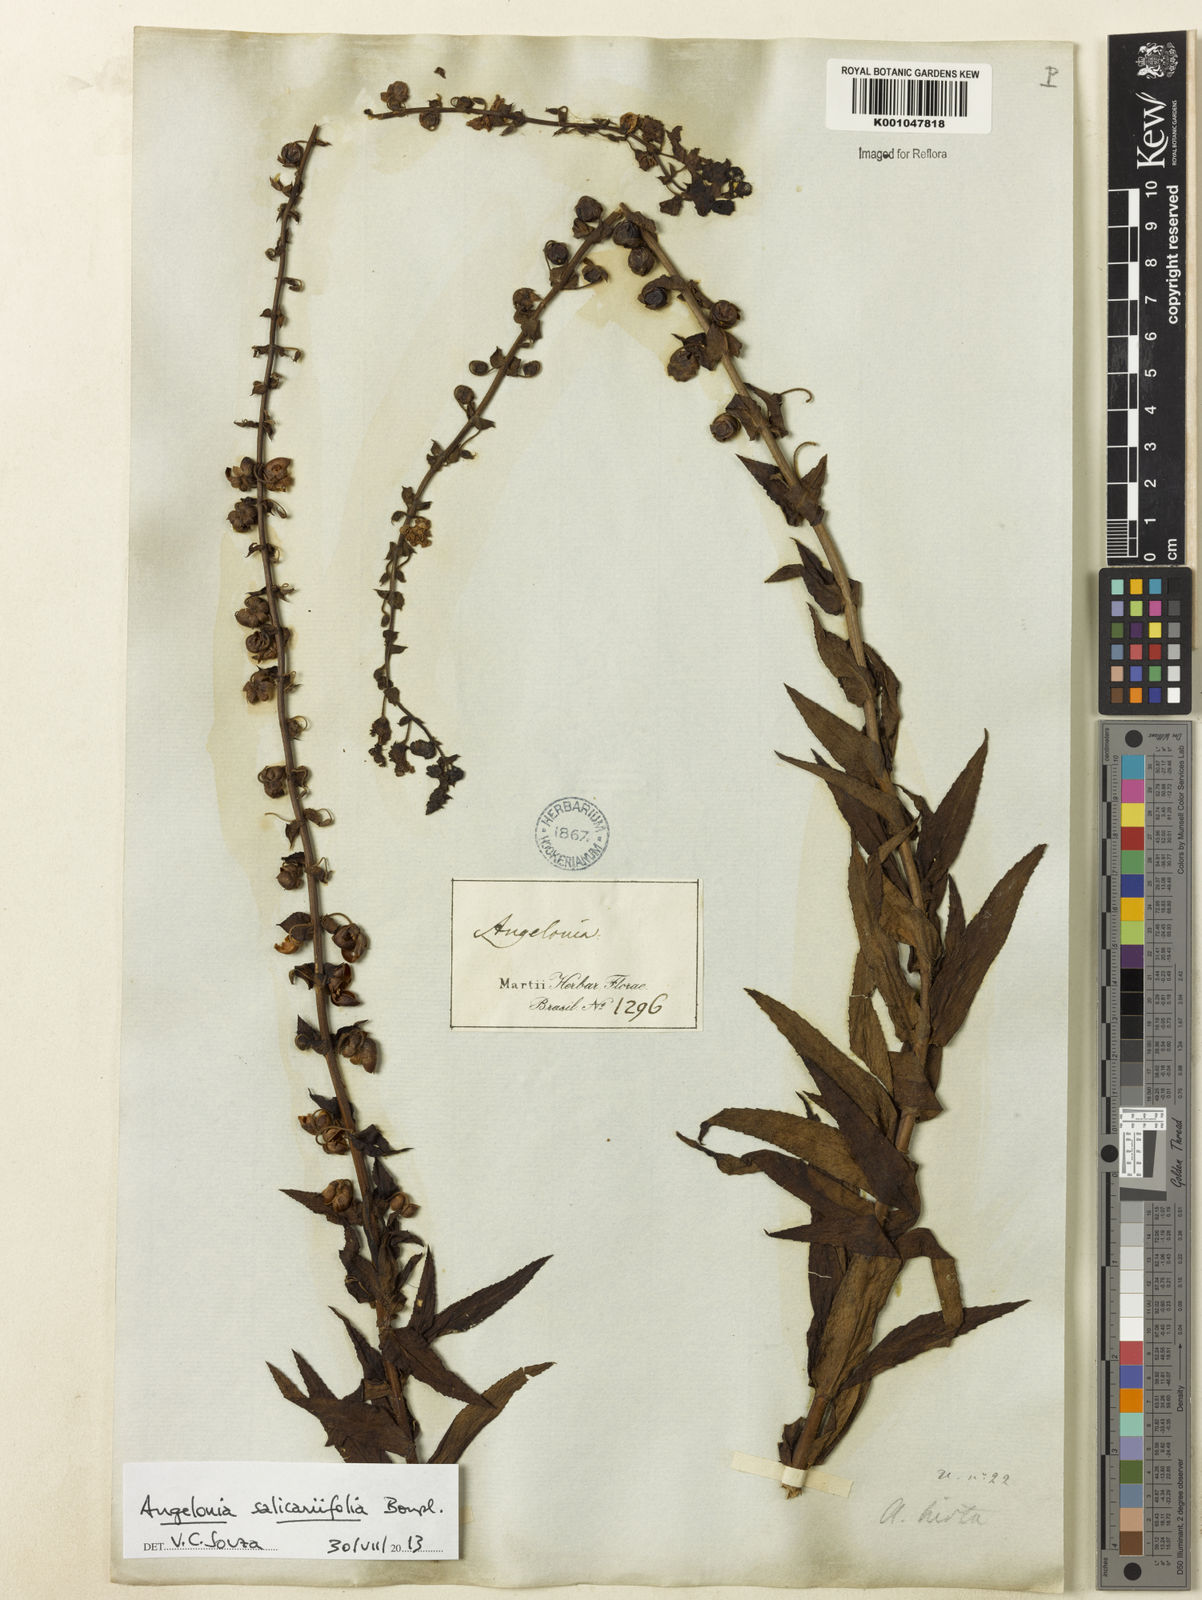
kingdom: Plantae
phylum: Tracheophyta
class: Magnoliopsida
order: Lamiales
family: Plantaginaceae
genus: Angelonia
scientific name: Angelonia salicariifolia
